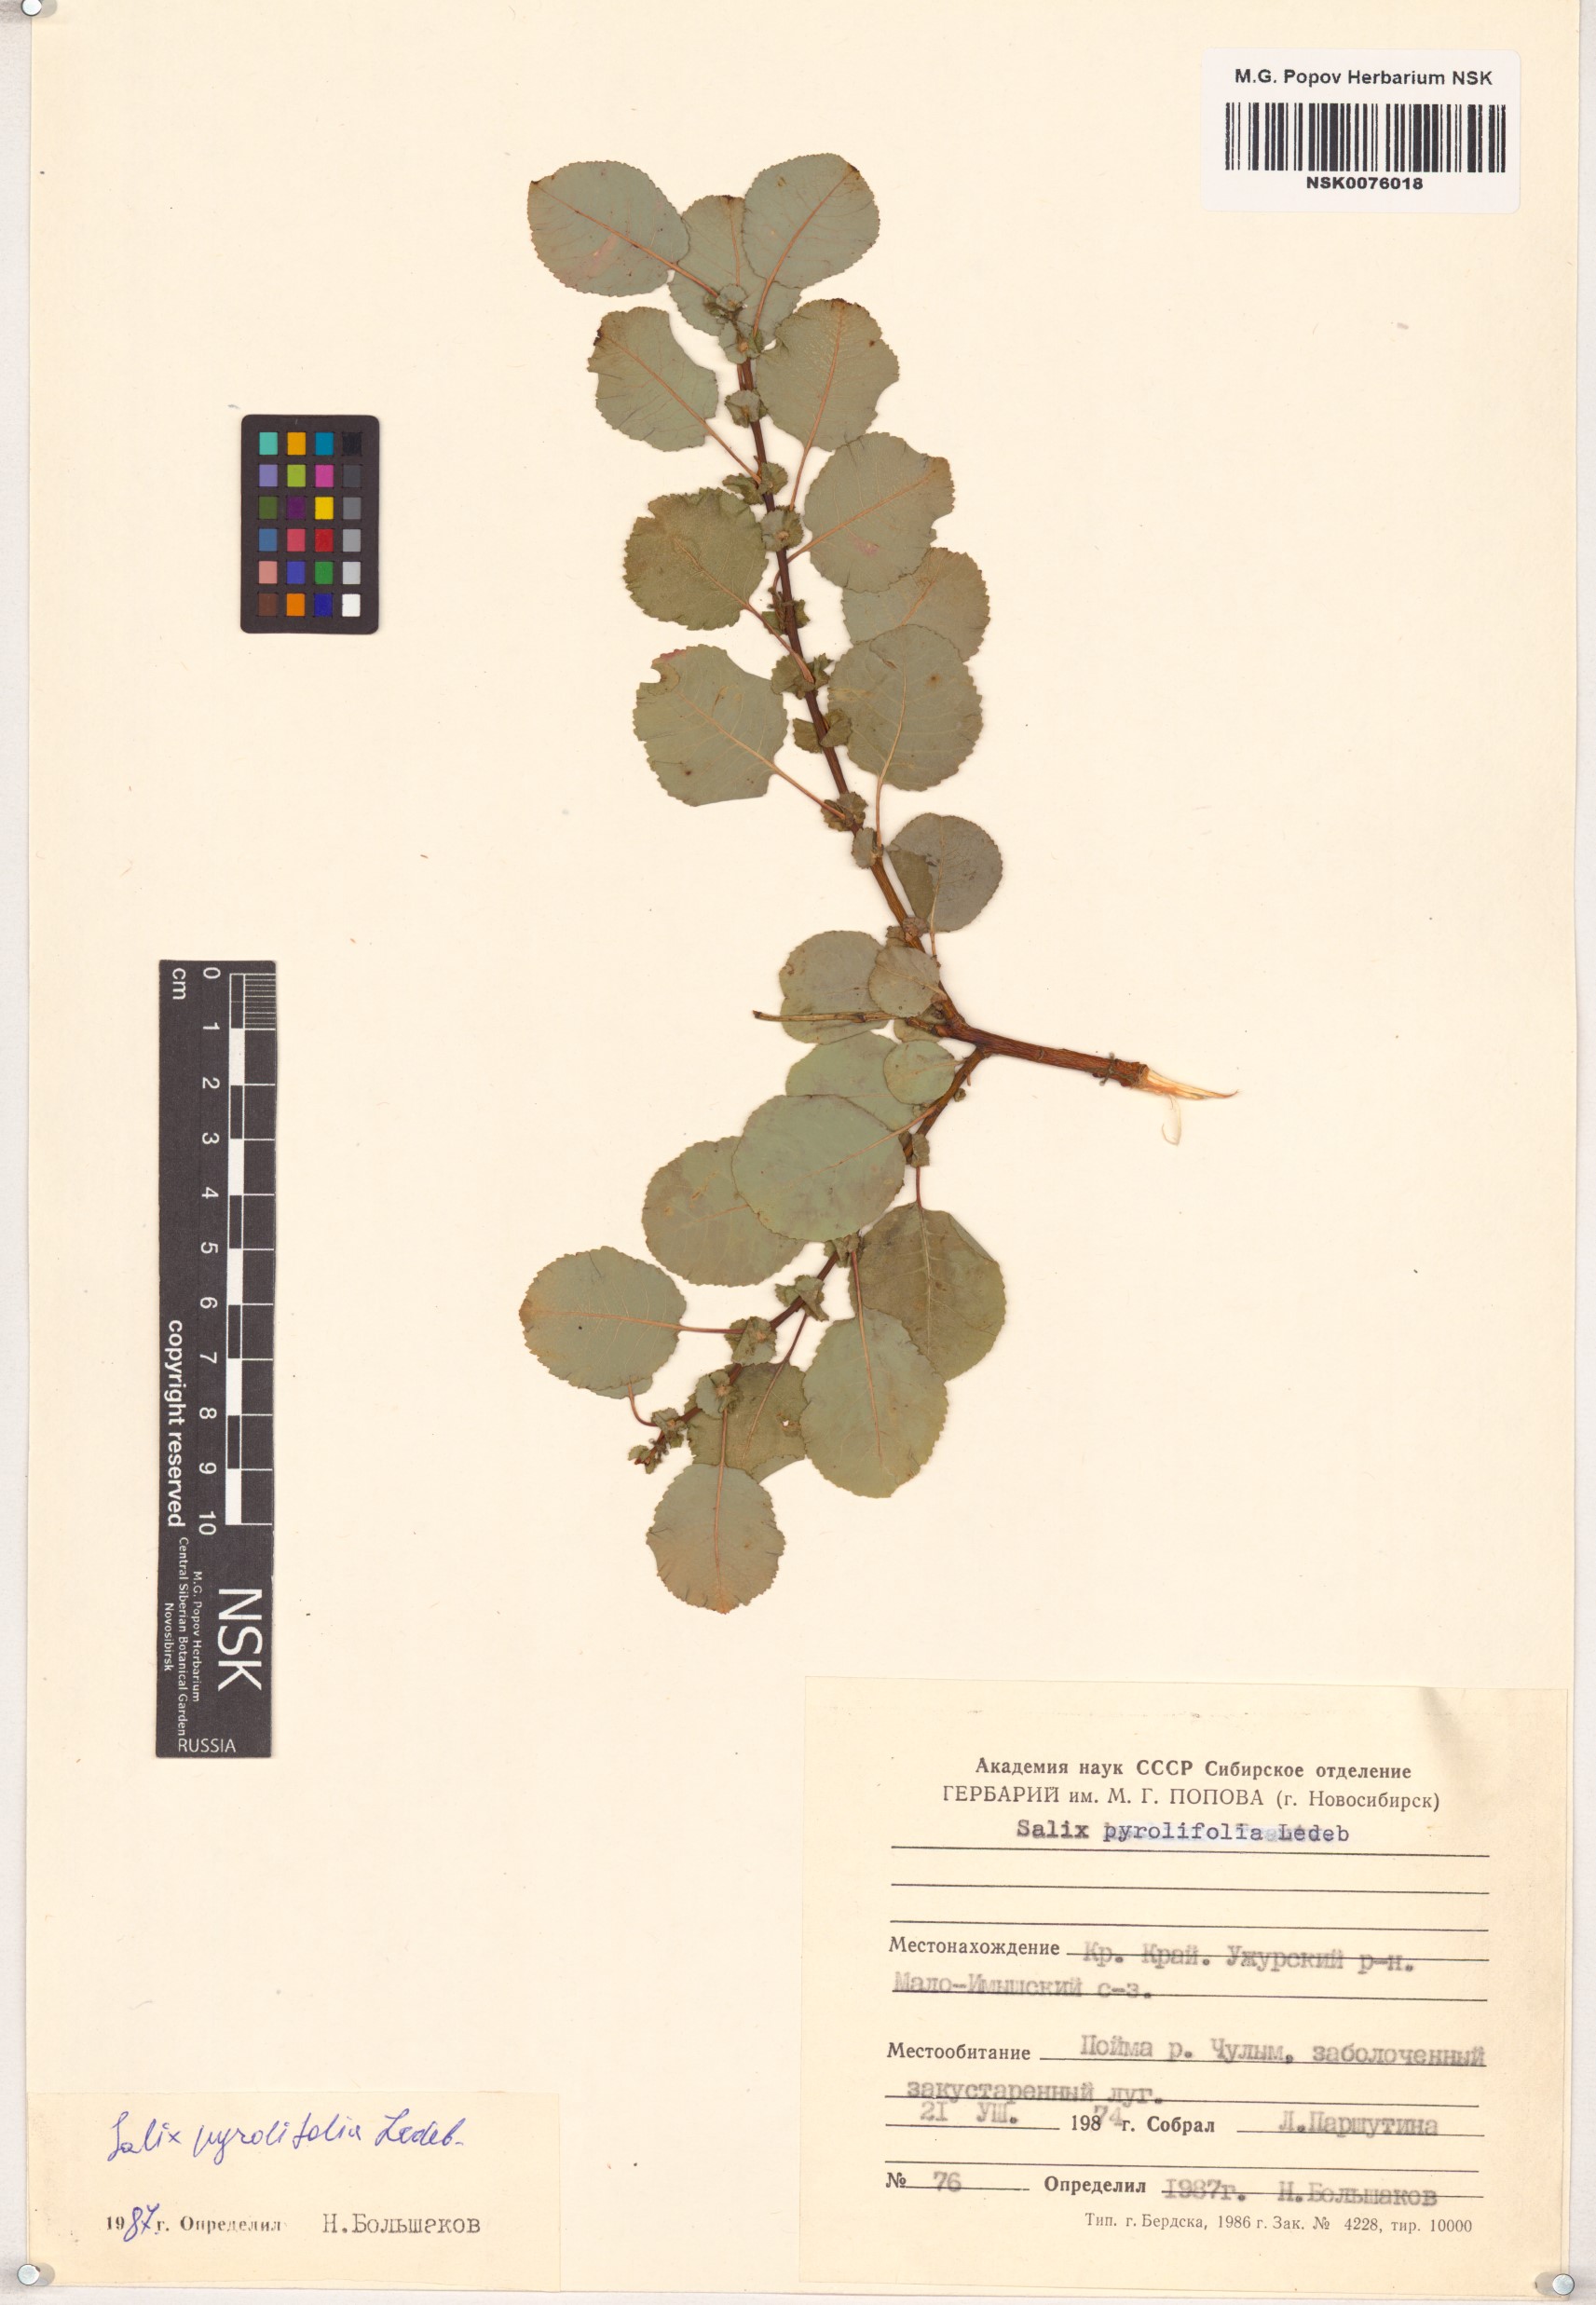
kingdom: Plantae
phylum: Tracheophyta
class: Magnoliopsida
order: Malpighiales
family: Salicaceae
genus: Salix
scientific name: Salix pyrolifolia
